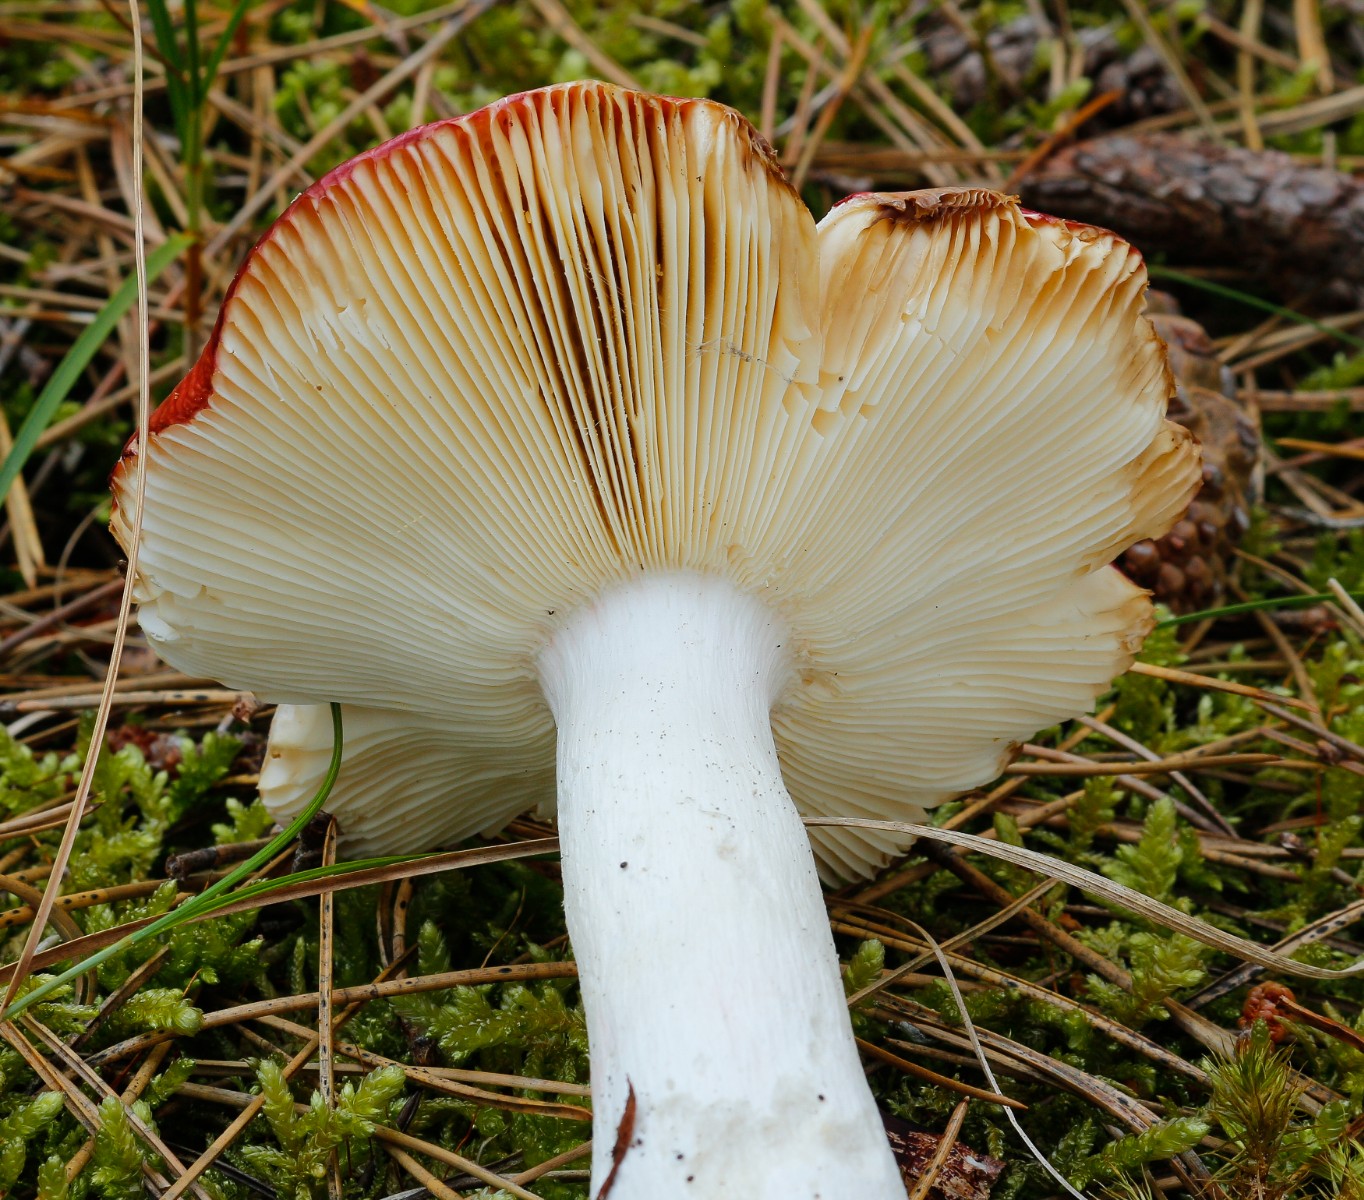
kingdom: Fungi
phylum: Basidiomycota
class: Agaricomycetes
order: Russulales
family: Russulaceae
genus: Russula
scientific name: Russula
